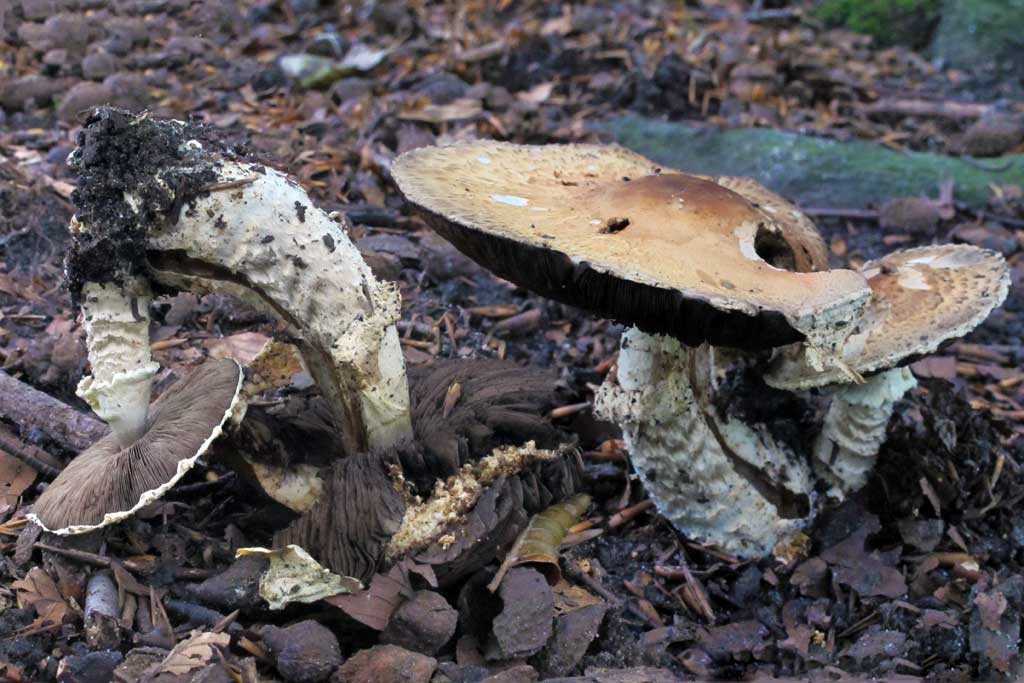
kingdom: Fungi
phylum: Basidiomycota
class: Agaricomycetes
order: Agaricales
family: Agaricaceae
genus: Agaricus
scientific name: Agaricus augustus
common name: prægtig champignon
